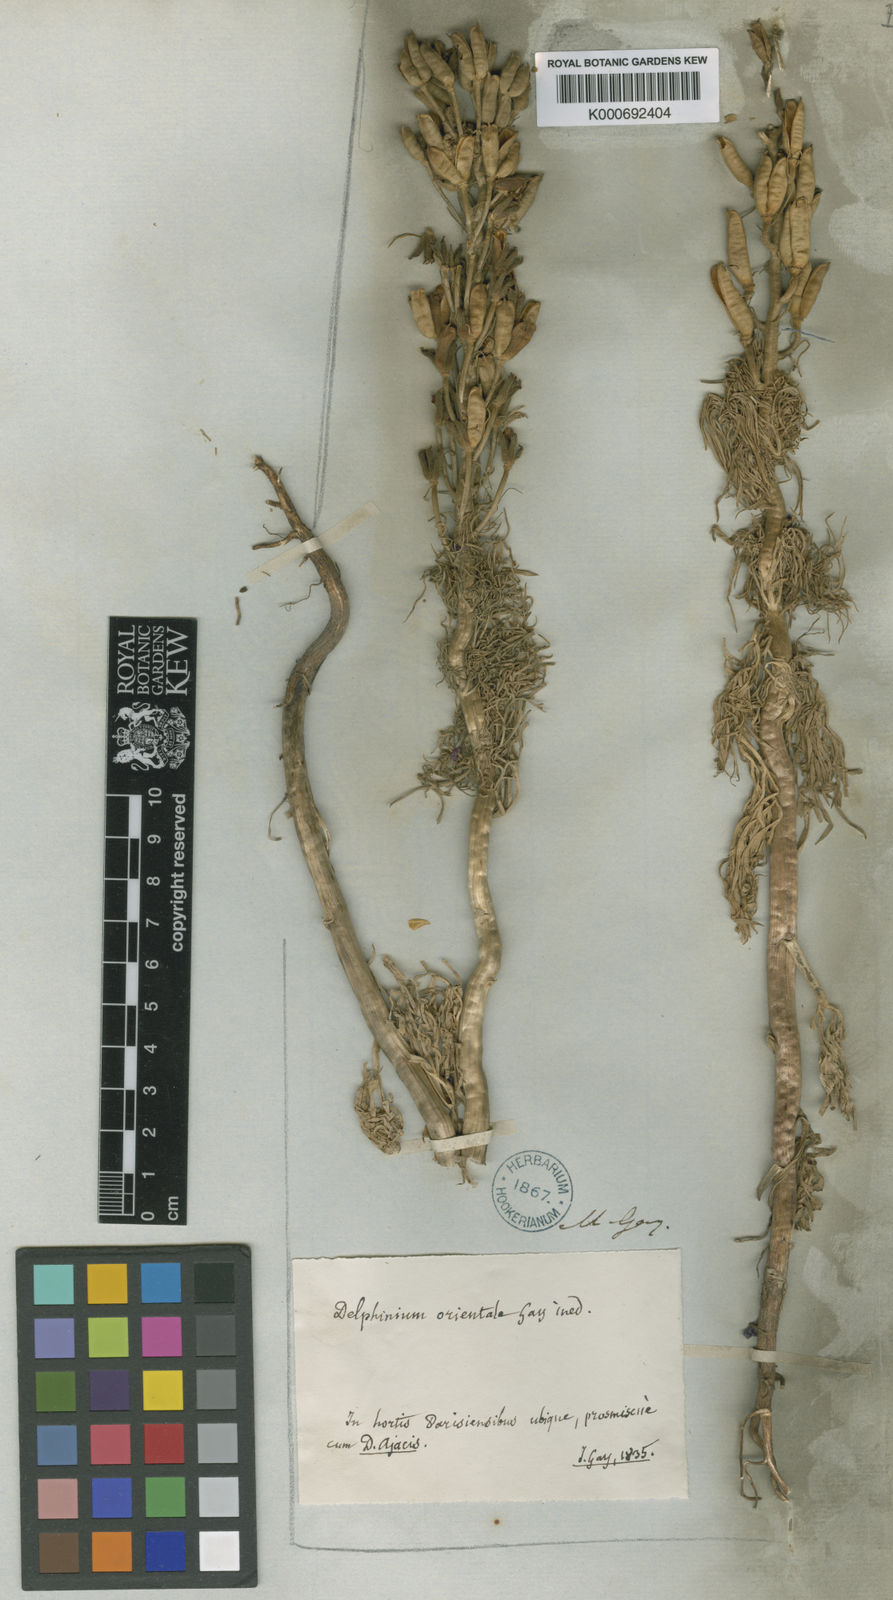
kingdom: Plantae
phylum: Tracheophyta
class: Magnoliopsida
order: Ranunculales
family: Ranunculaceae
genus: Delphinium
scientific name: Delphinium
